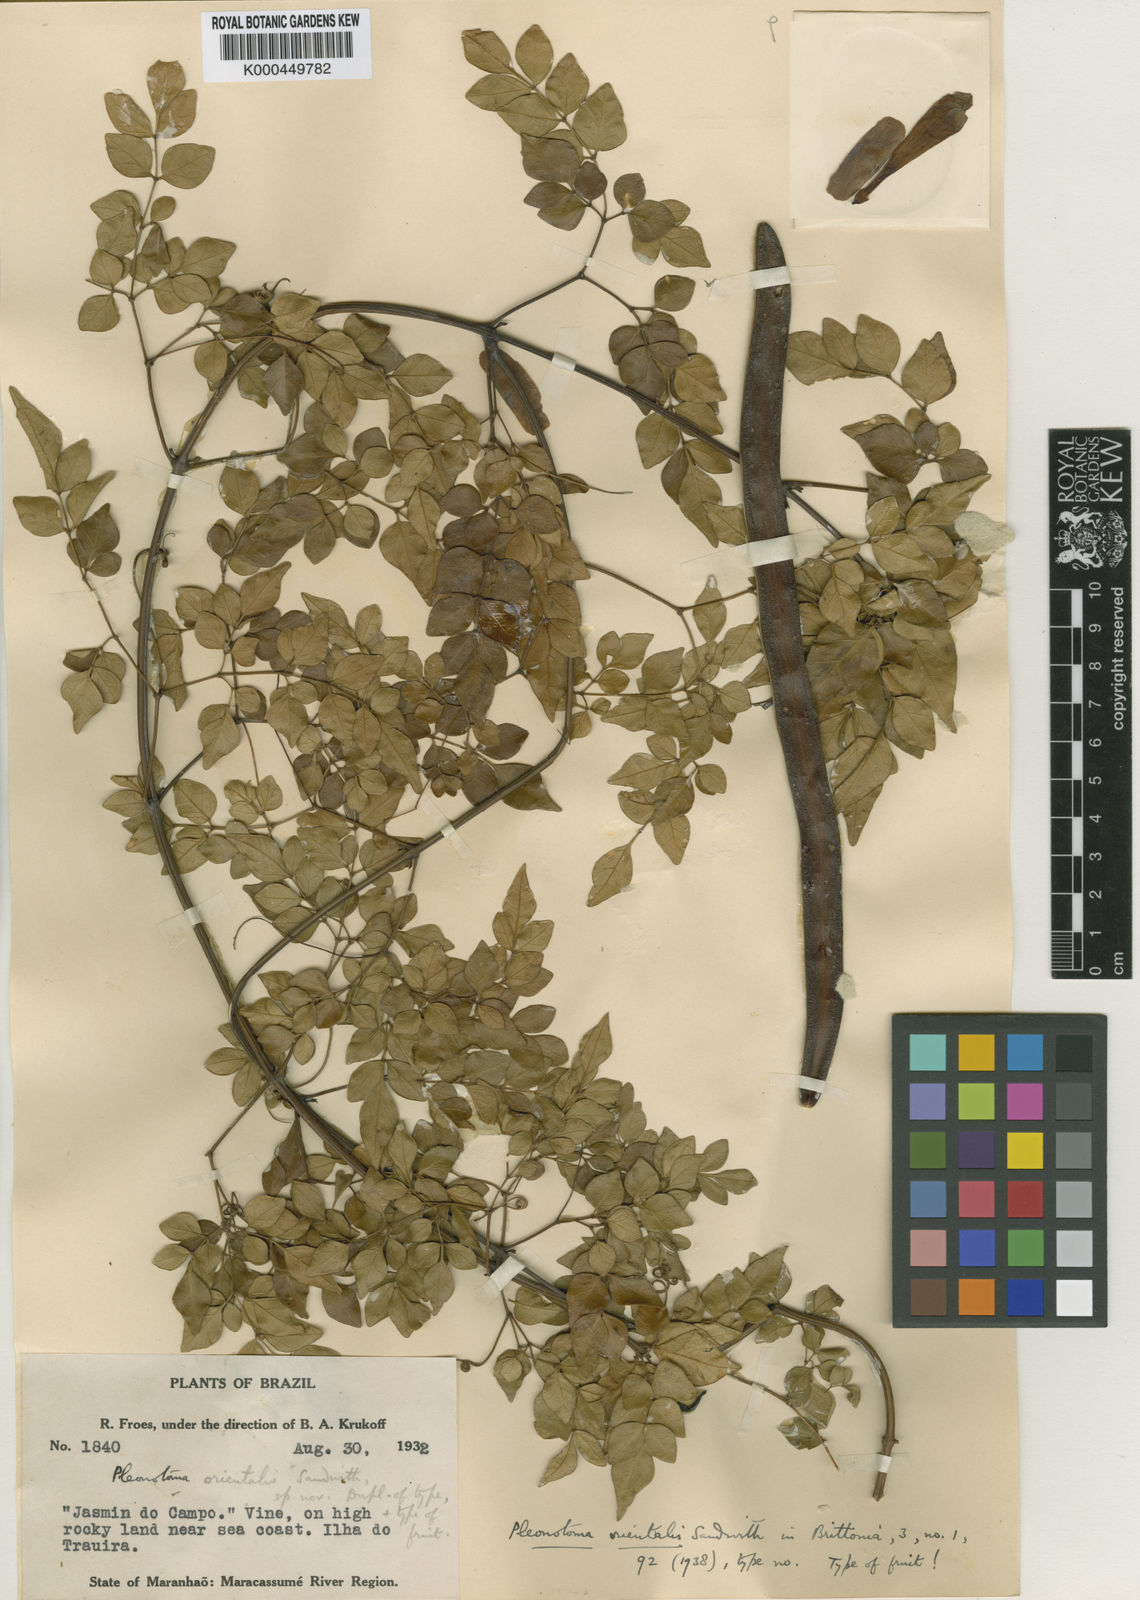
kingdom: Plantae
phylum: Tracheophyta
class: Magnoliopsida
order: Lamiales
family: Bignoniaceae
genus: Pleonotoma
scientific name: Pleonotoma orientalis
